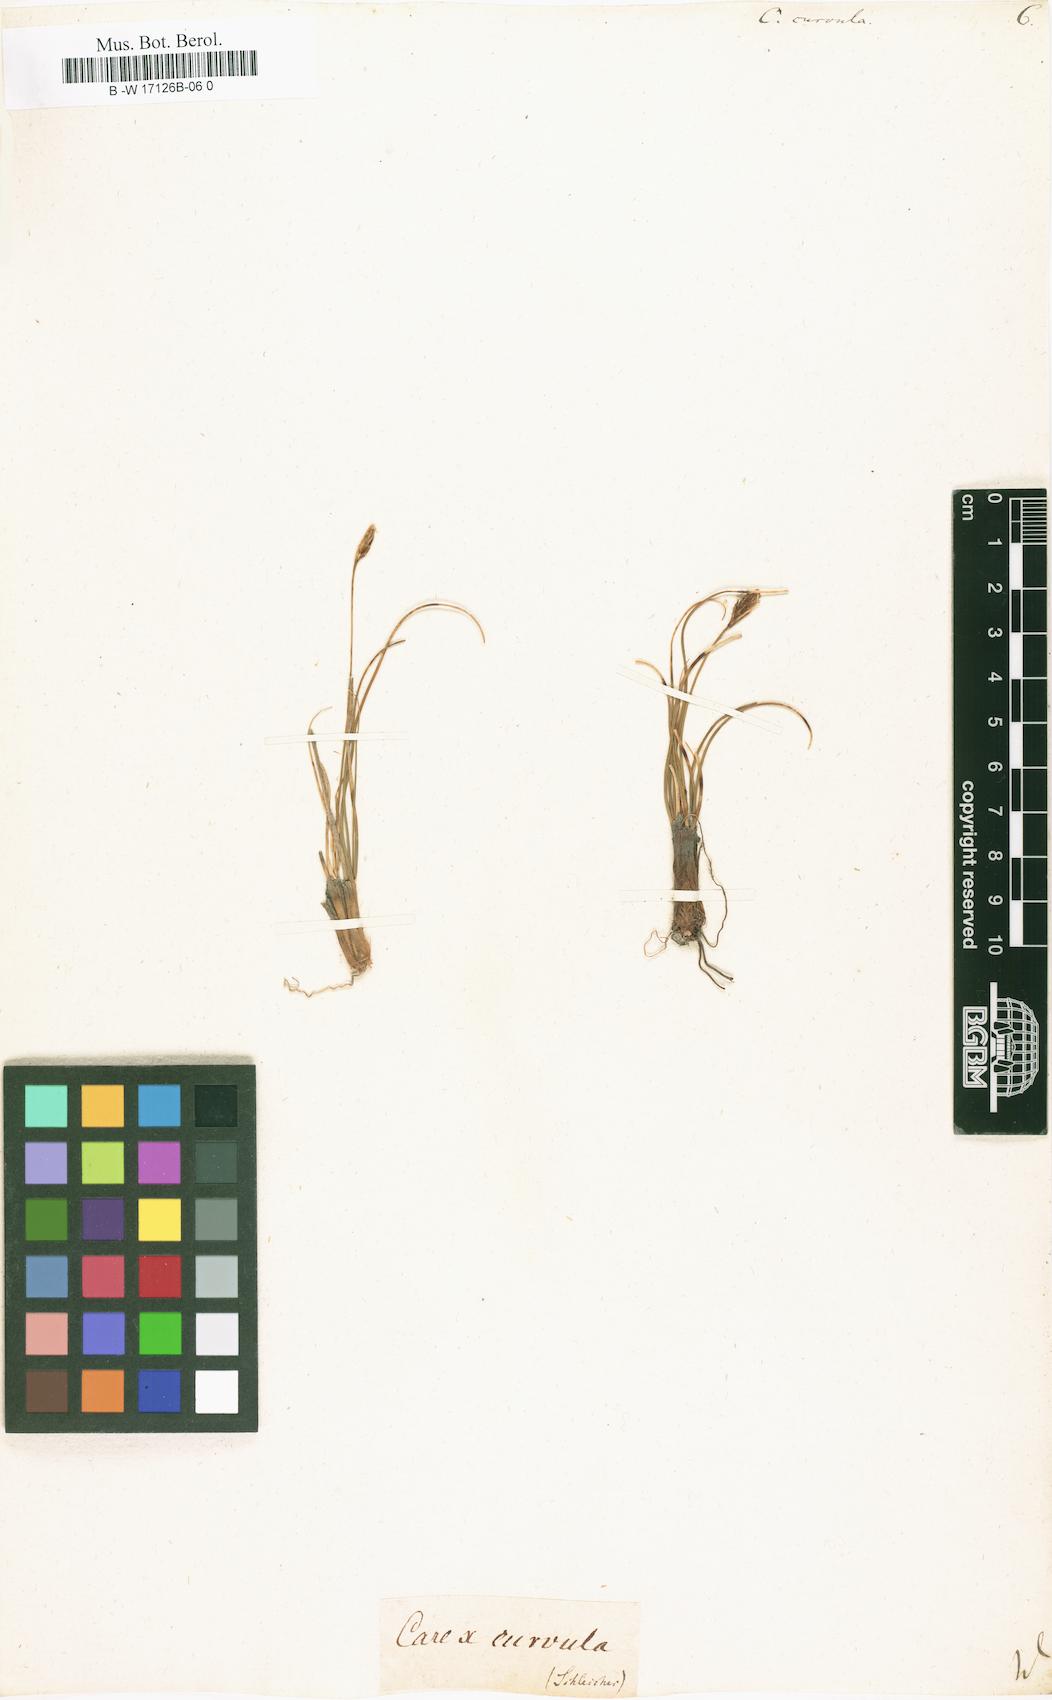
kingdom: Plantae
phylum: Tracheophyta
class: Liliopsida
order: Poales
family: Cyperaceae
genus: Carex
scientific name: Carex curvula
